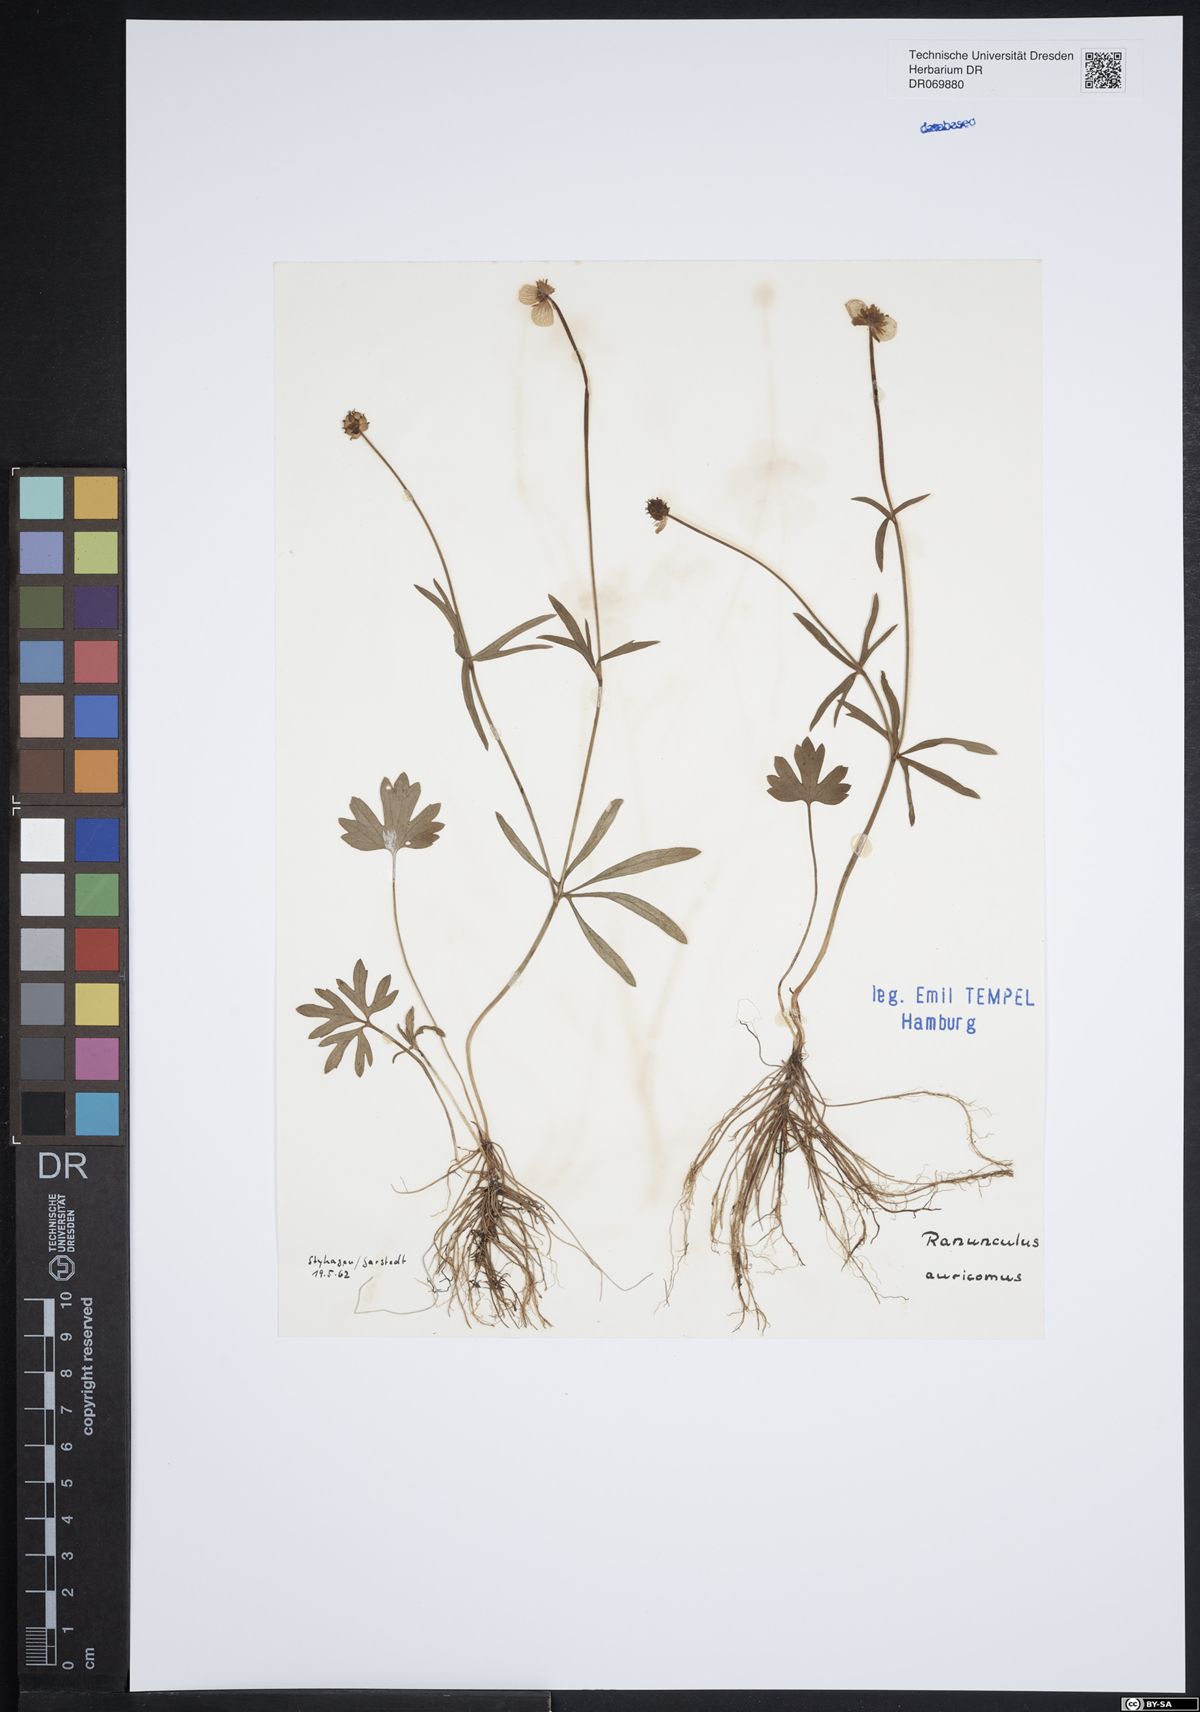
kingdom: Plantae
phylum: Tracheophyta
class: Magnoliopsida
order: Ranunculales
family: Ranunculaceae
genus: Ranunculus
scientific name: Ranunculus auricomus
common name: Goldilocks buttercup
